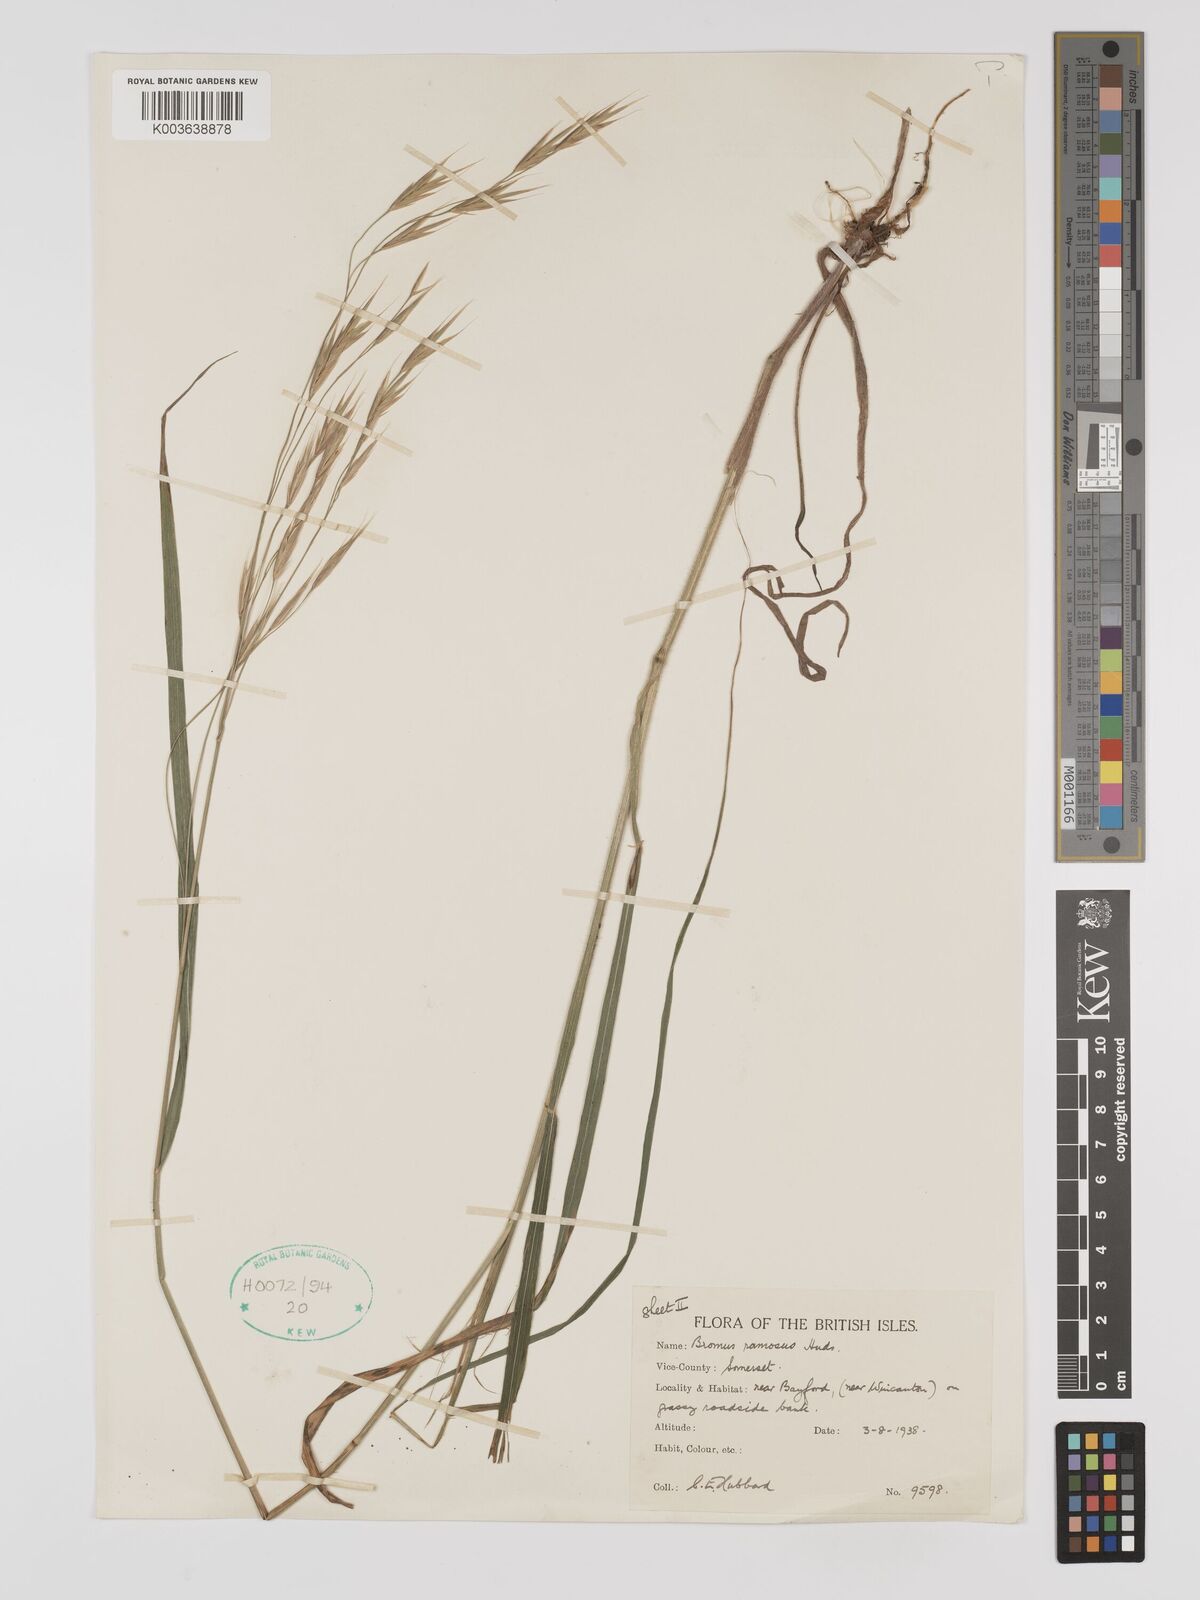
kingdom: Plantae
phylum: Tracheophyta
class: Liliopsida
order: Poales
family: Poaceae
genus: Brachypodium
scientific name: Brachypodium retusum
